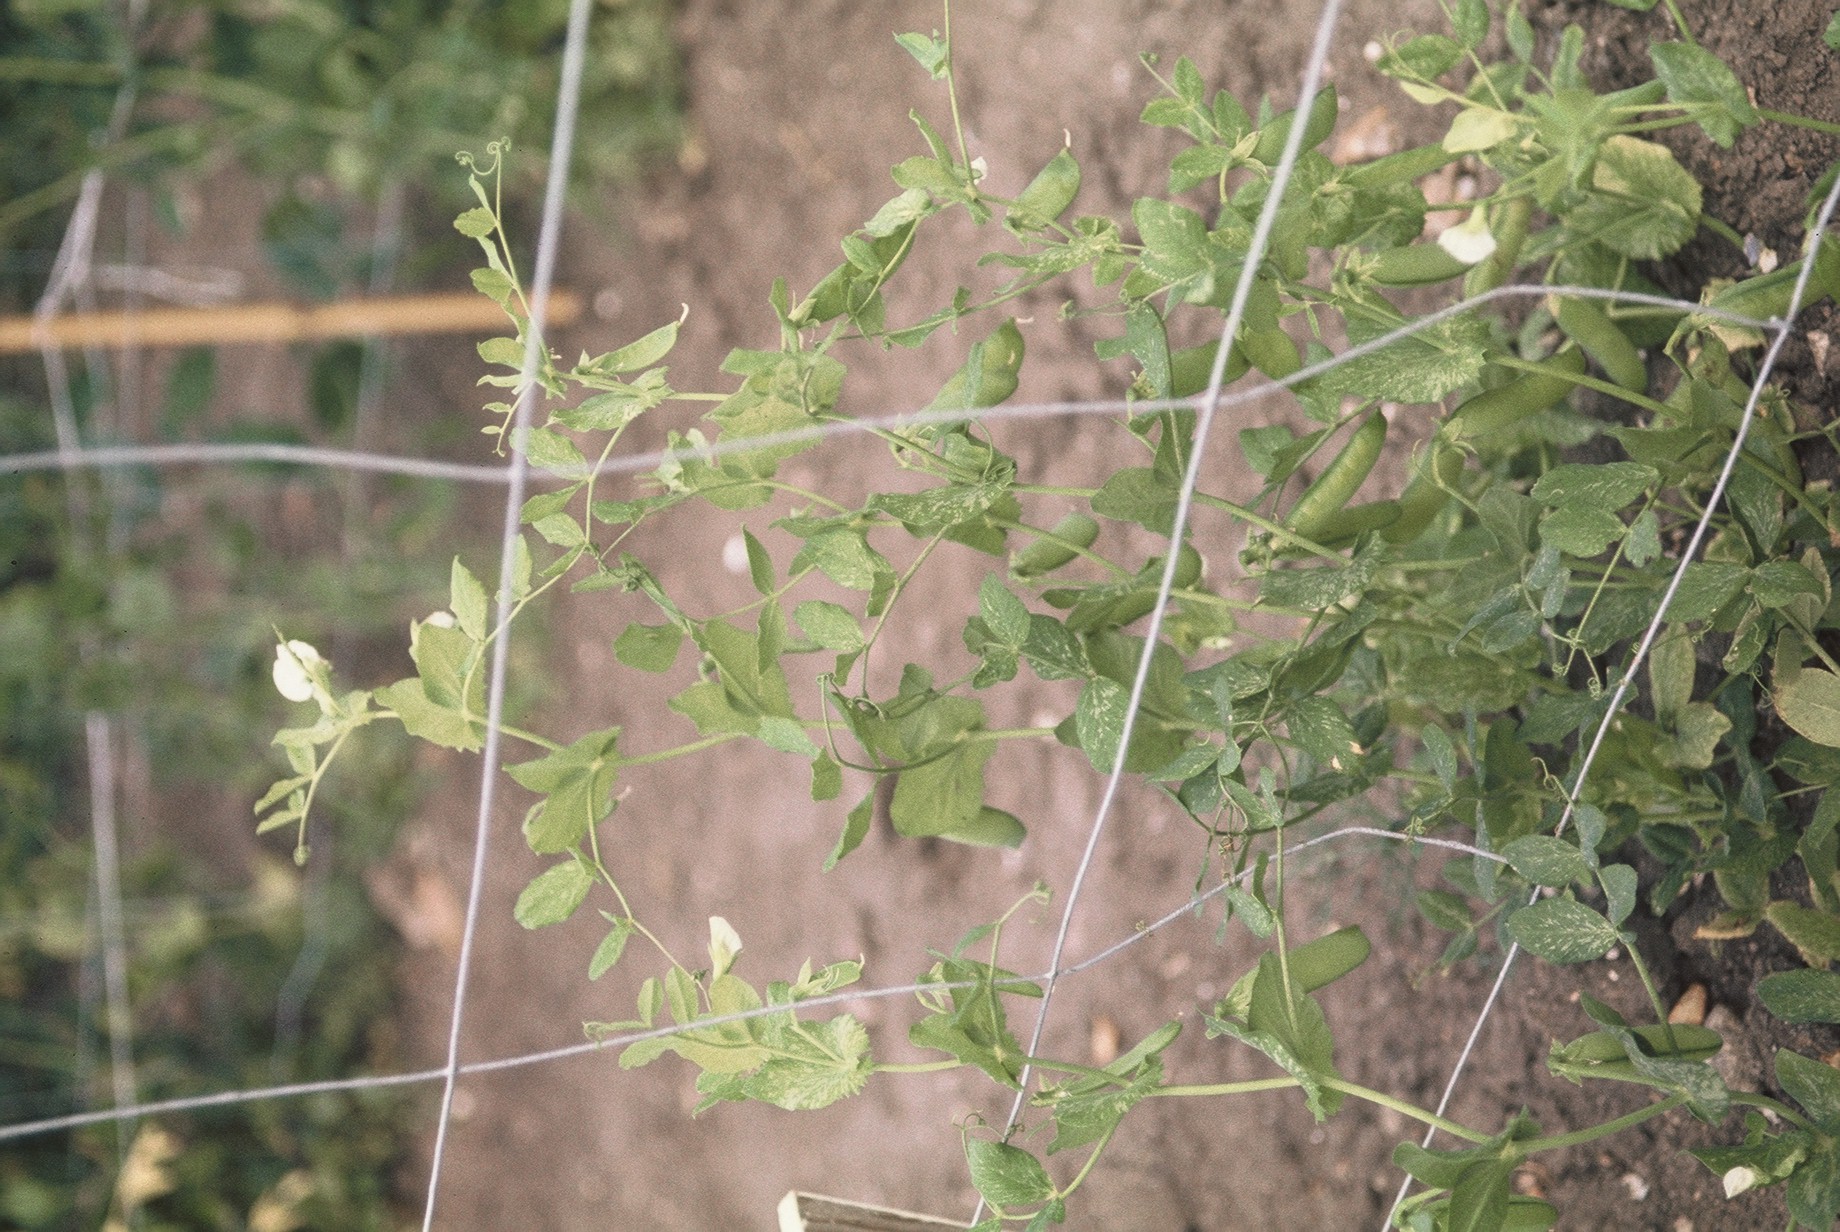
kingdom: Plantae
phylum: Tracheophyta
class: Magnoliopsida
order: Fabales
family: Fabaceae
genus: Lathyrus
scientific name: Lathyrus oleraceus
